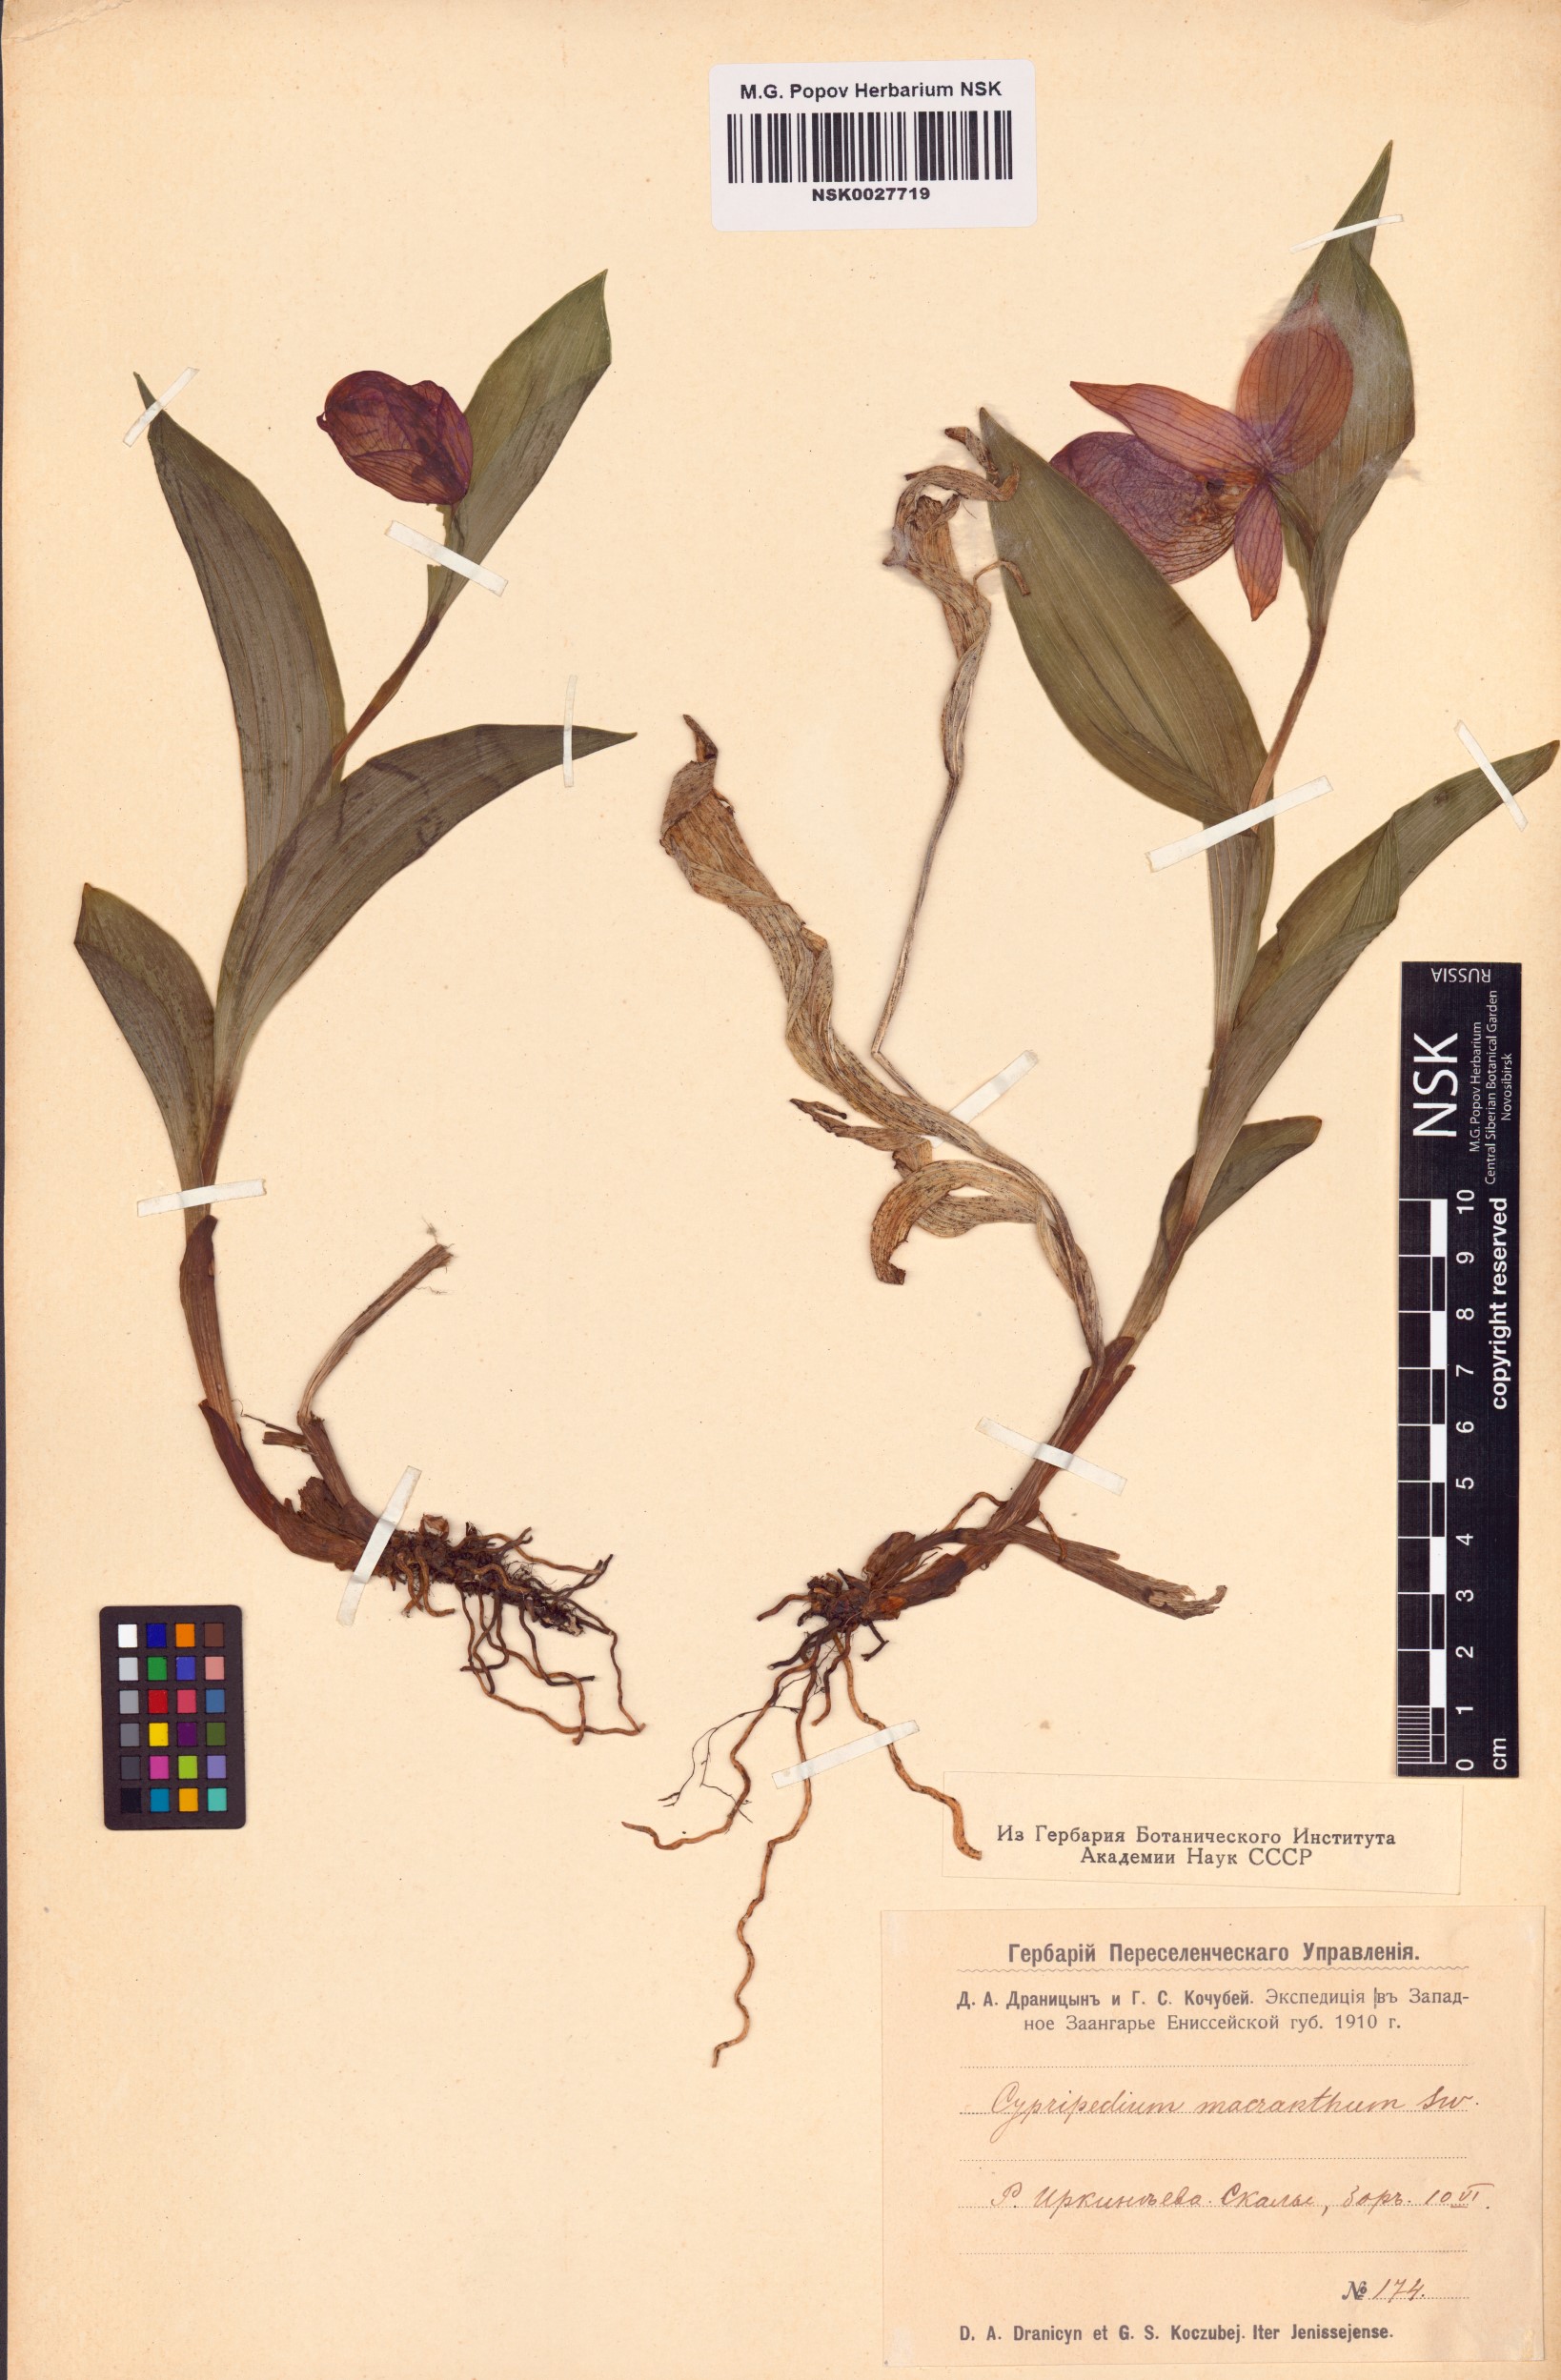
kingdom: Plantae
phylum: Tracheophyta
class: Liliopsida
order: Asparagales
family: Orchidaceae
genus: Cypripedium
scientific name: Cypripedium macranthos
